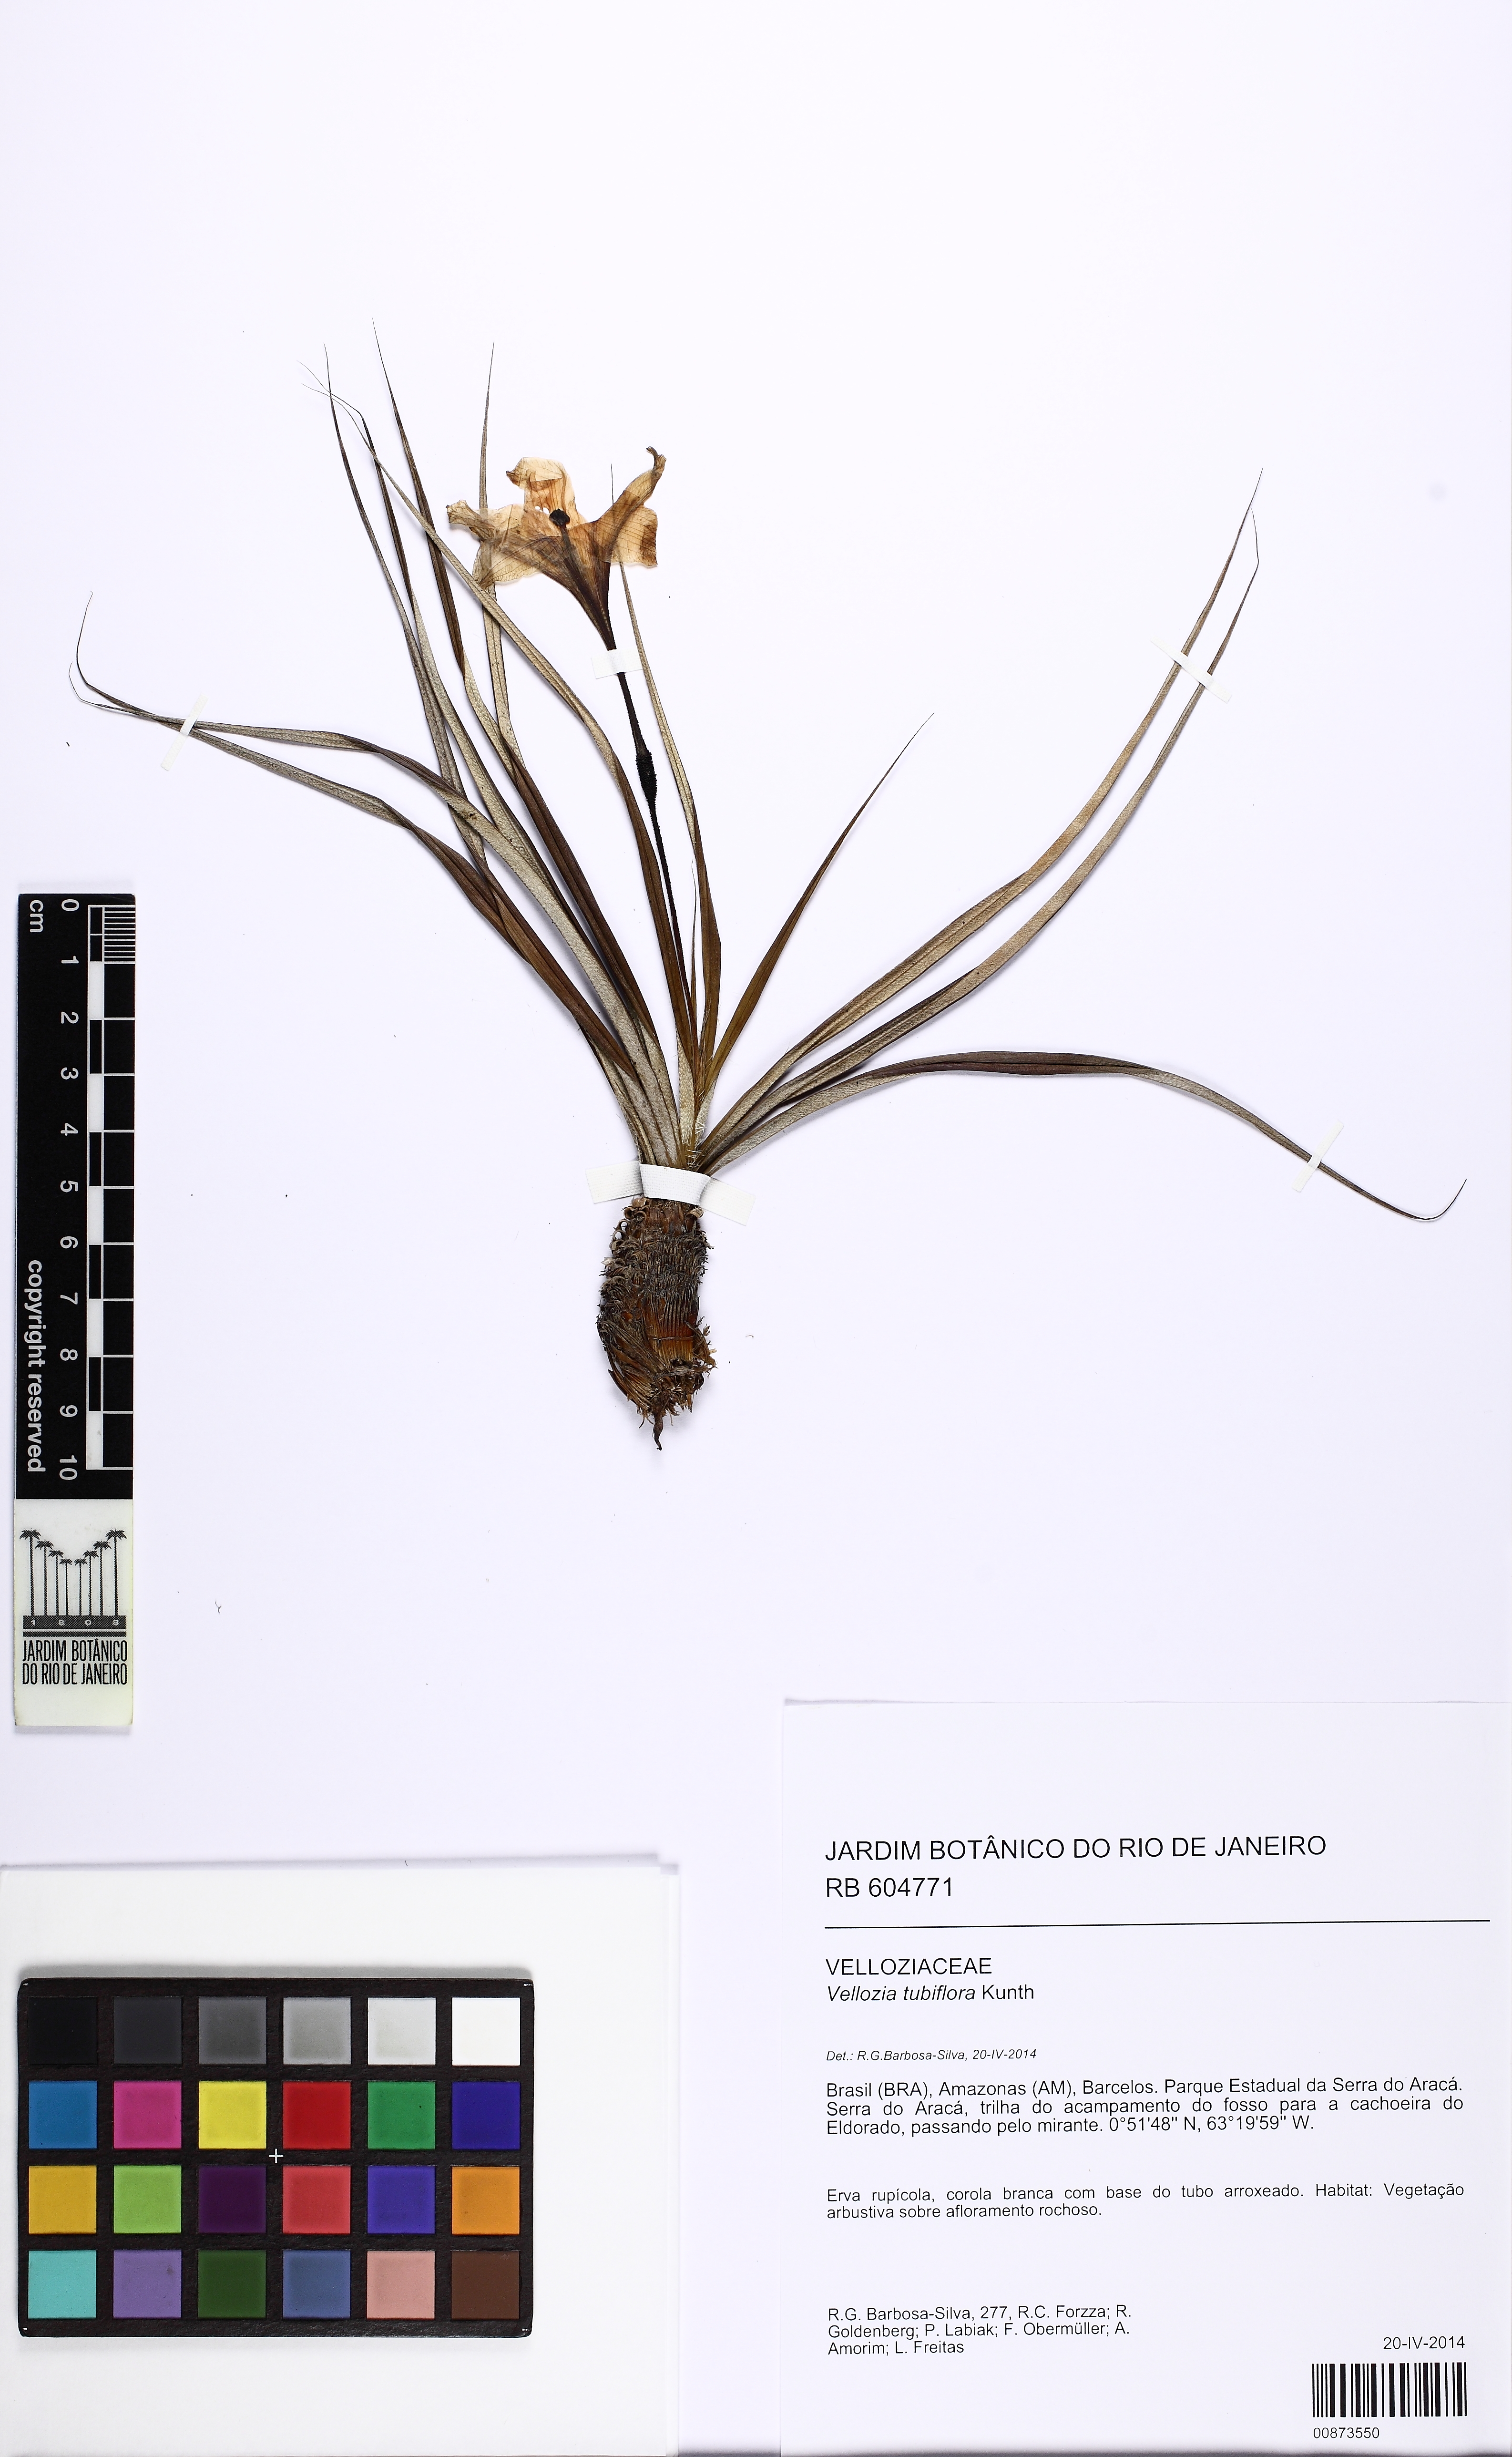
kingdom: Plantae
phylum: Tracheophyta
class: Liliopsida
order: Pandanales
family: Velloziaceae
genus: Vellozia
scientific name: Vellozia tubiflora
